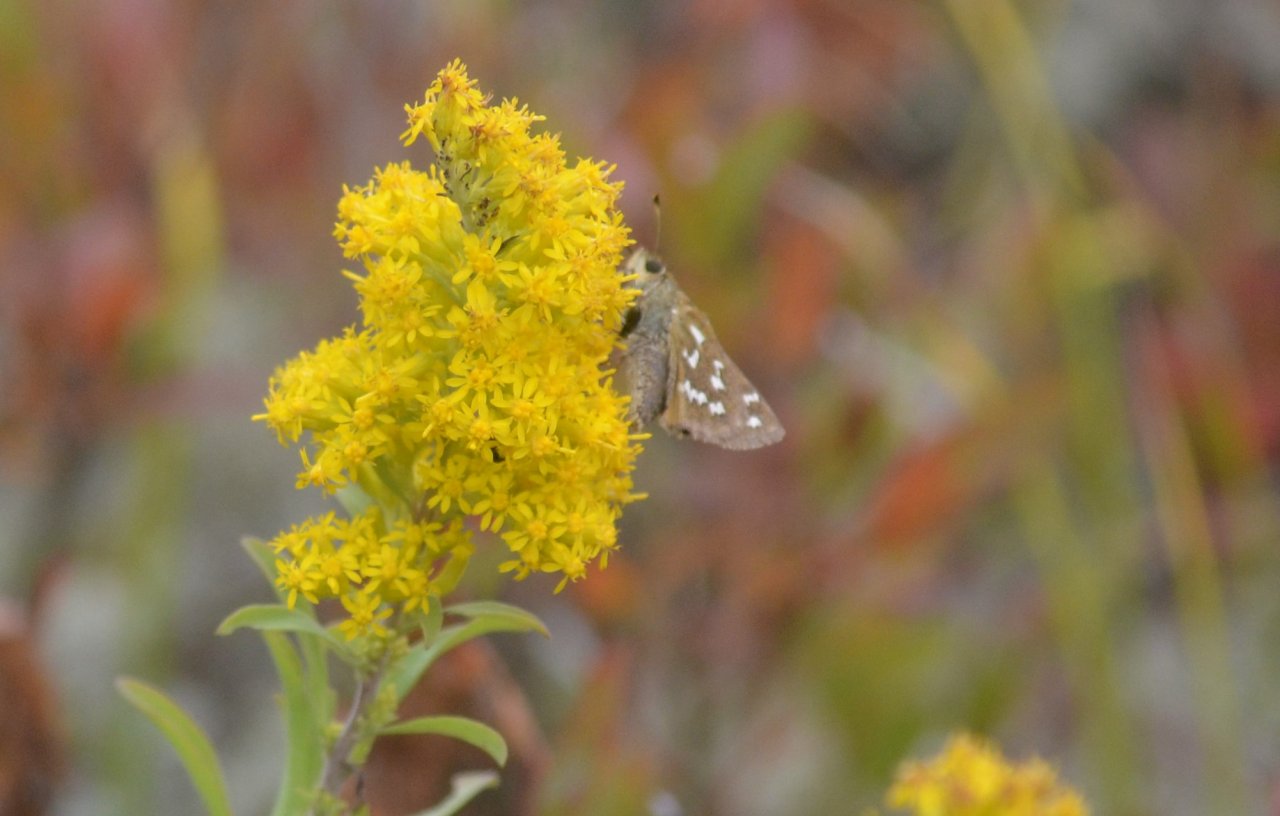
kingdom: Animalia
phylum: Arthropoda
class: Insecta
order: Lepidoptera
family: Hesperiidae
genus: Hesperia
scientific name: Hesperia comma
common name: Common Branded Skipper
